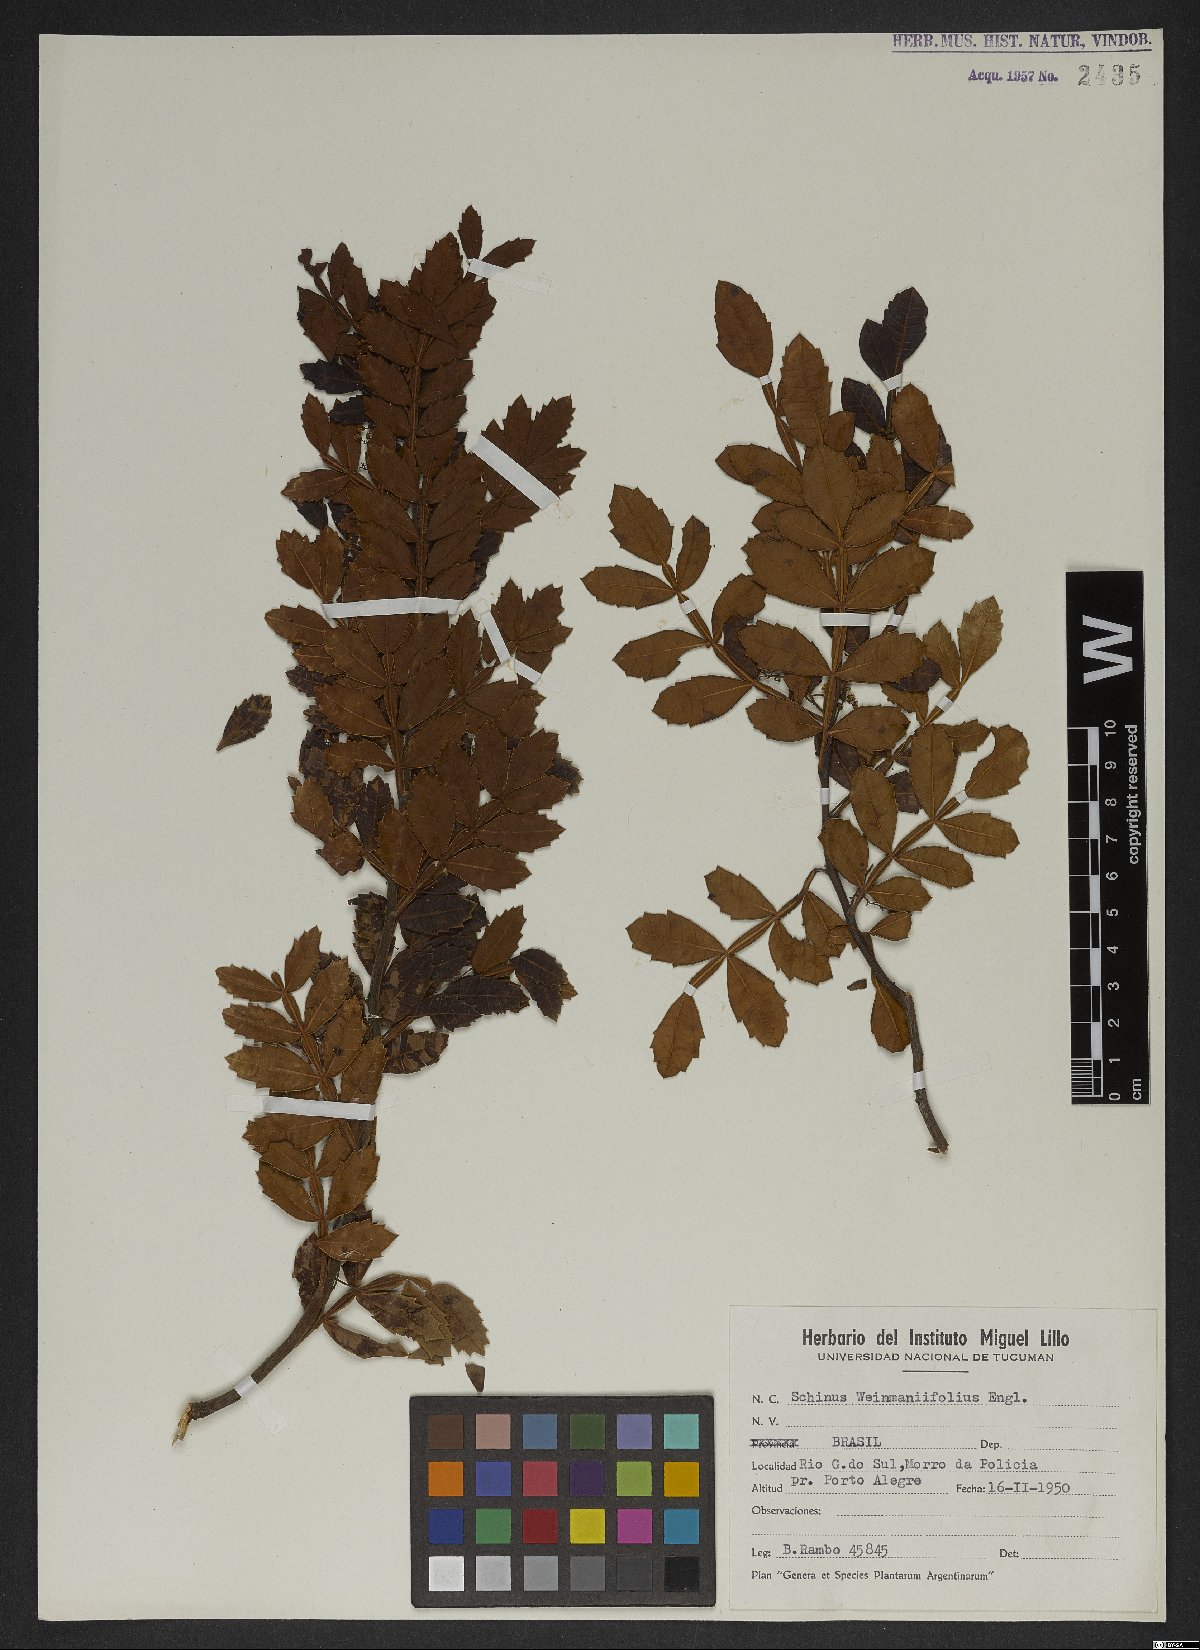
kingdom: Plantae
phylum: Tracheophyta
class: Magnoliopsida
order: Sapindales
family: Anacardiaceae
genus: Schinus
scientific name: Schinus weinmanniifolia
